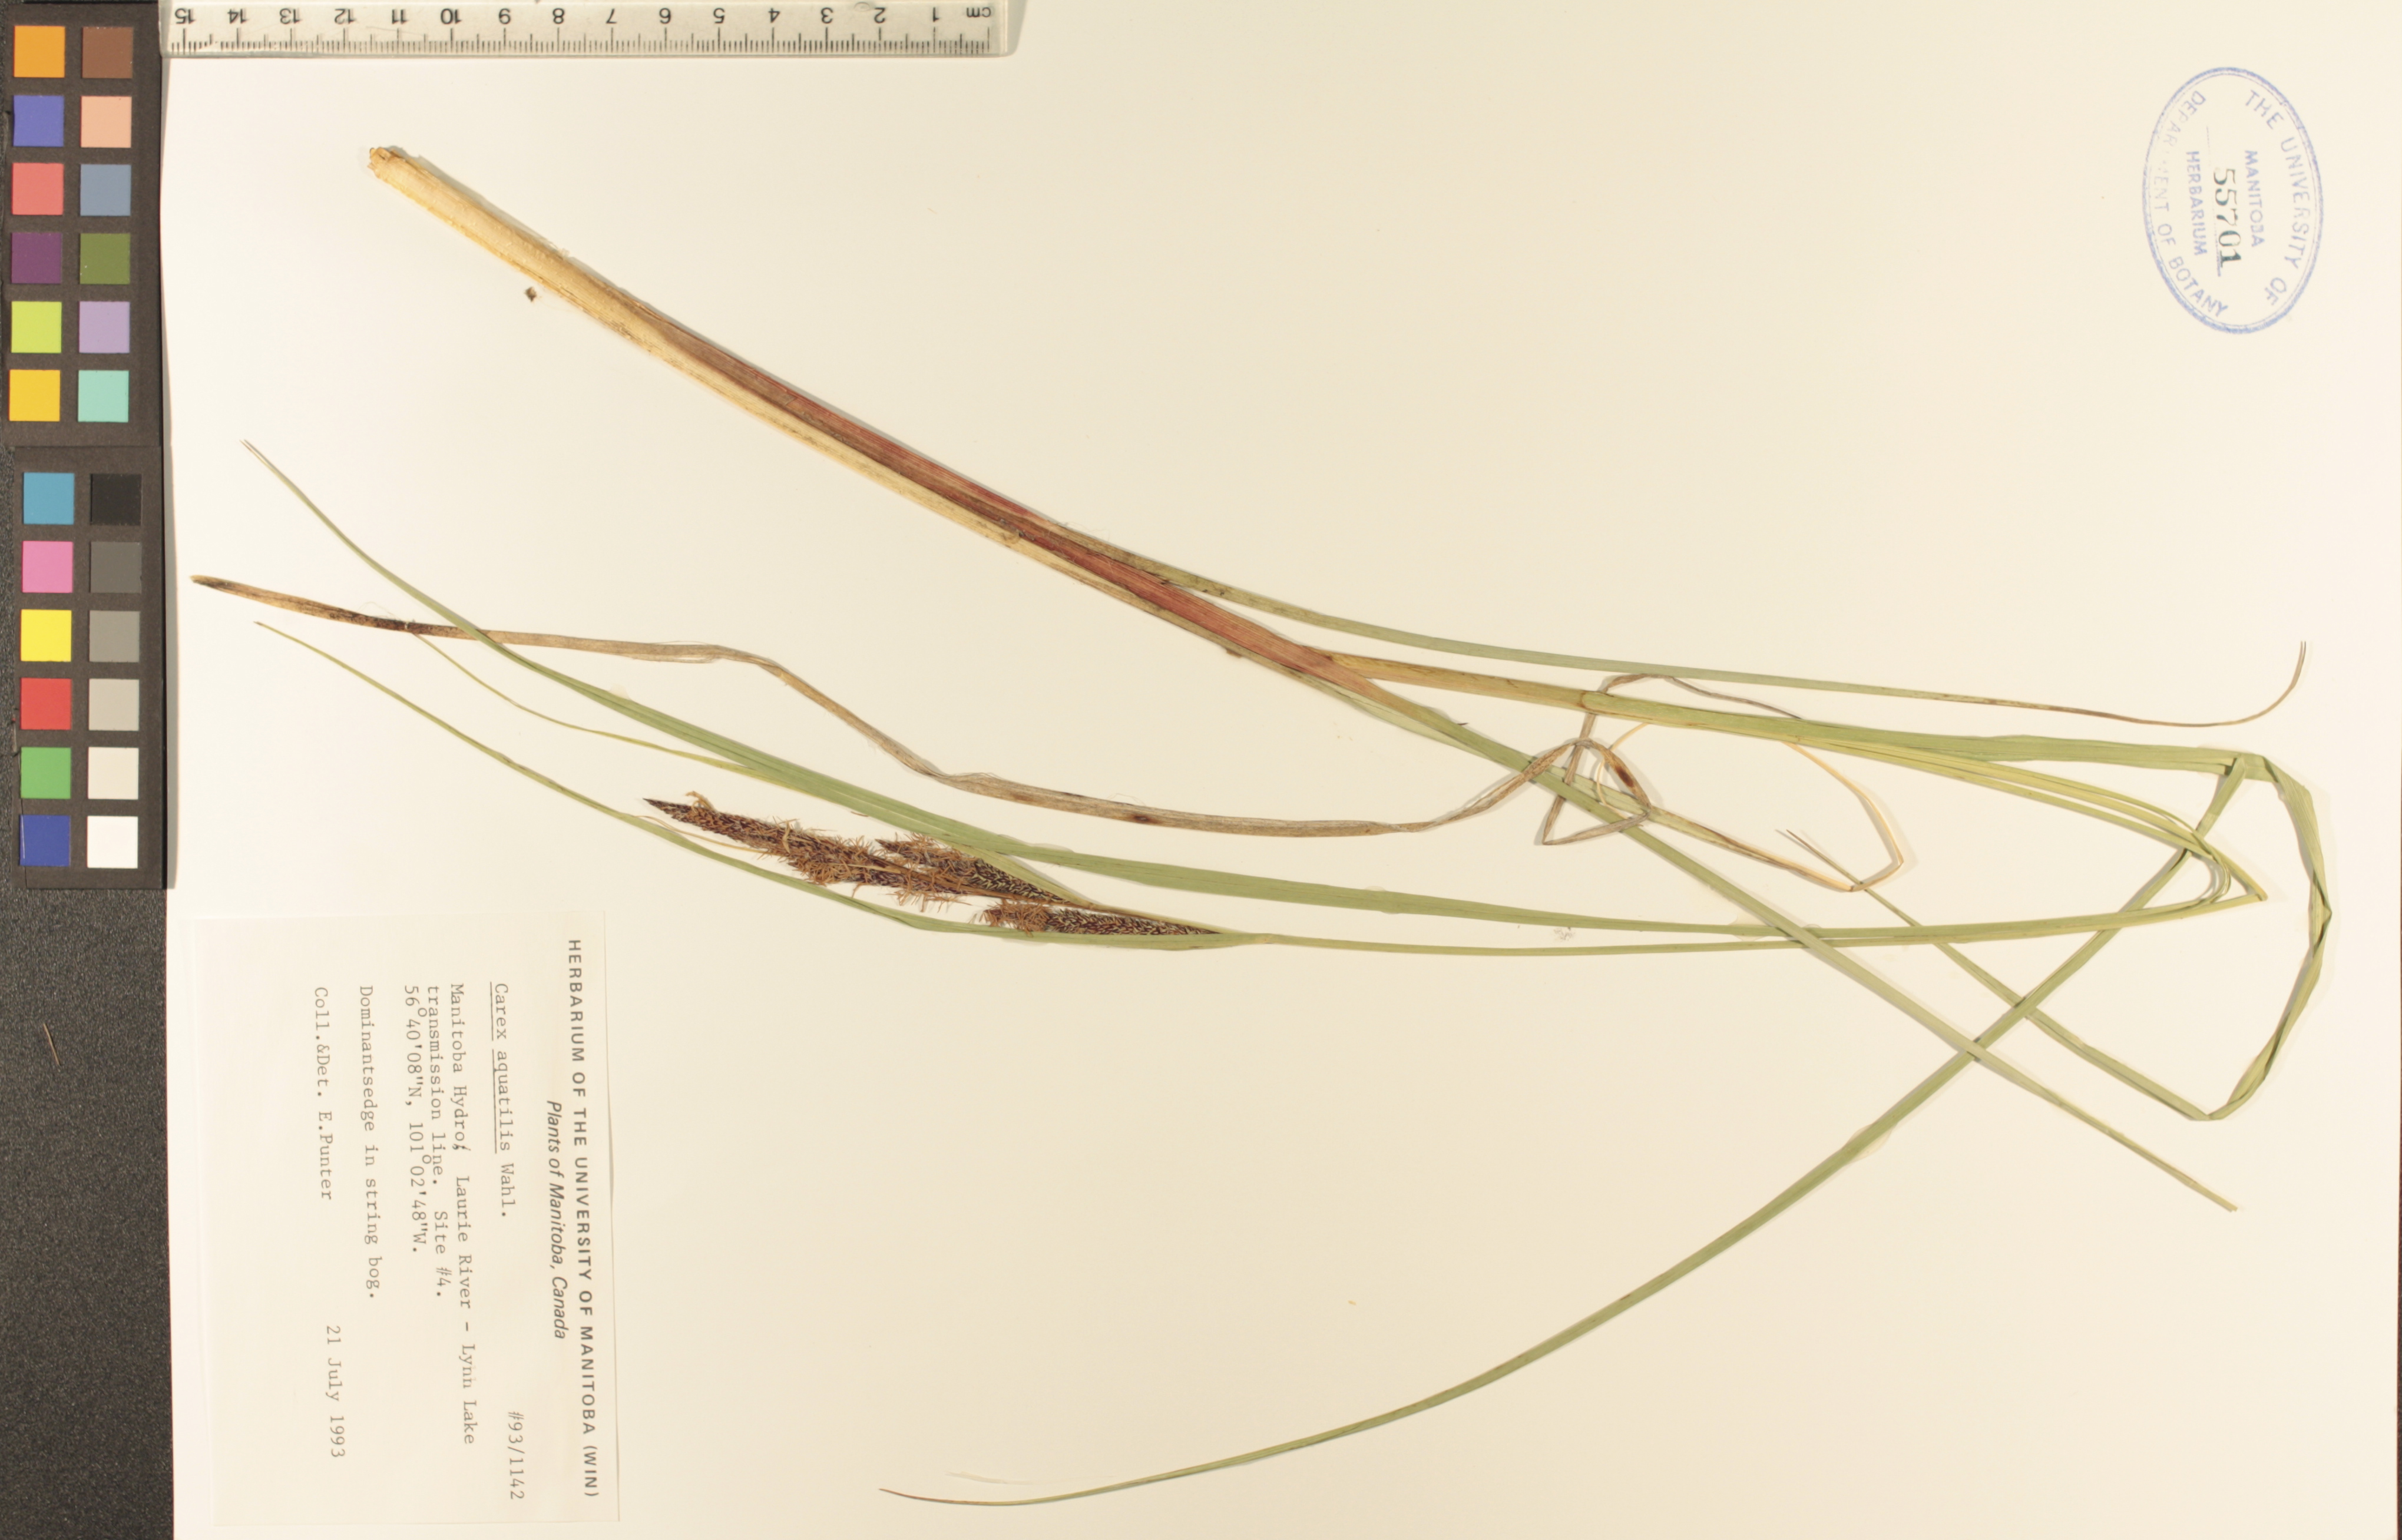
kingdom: Plantae
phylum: Tracheophyta
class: Liliopsida
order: Poales
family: Cyperaceae
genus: Carex
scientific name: Carex aquatilis
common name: Water sedge
